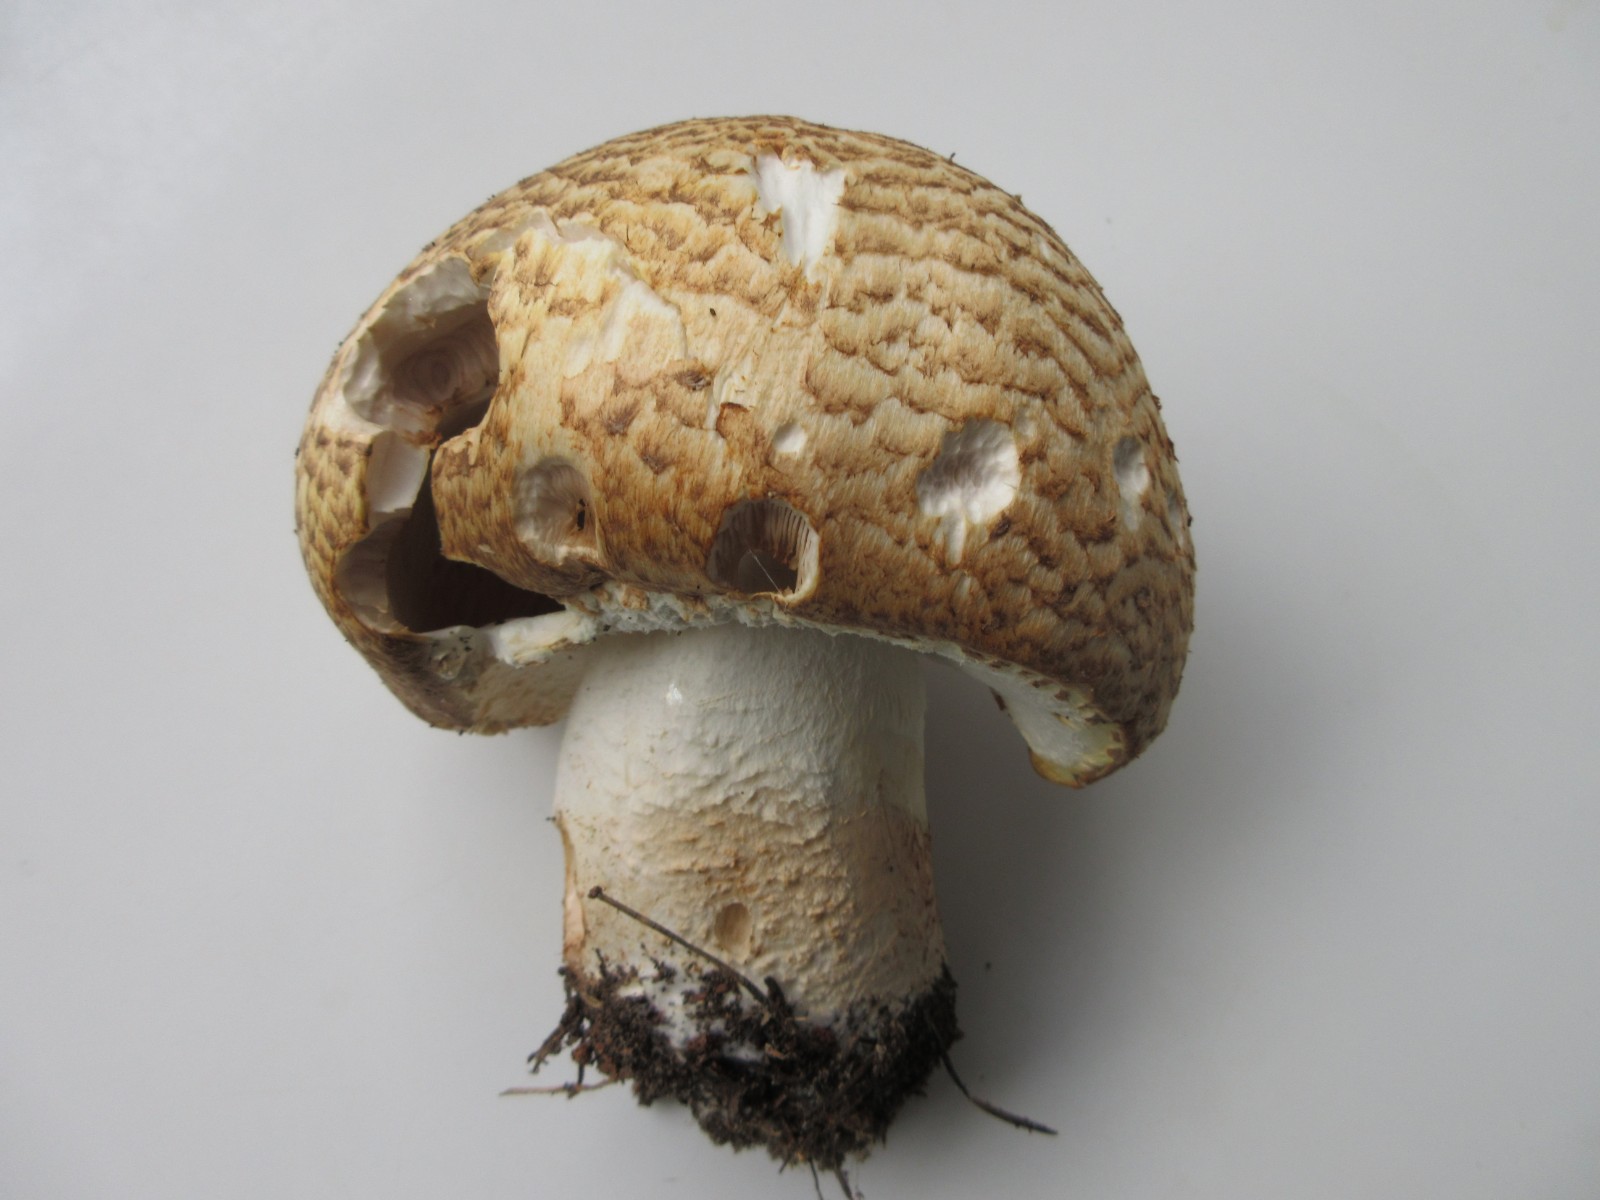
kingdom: Fungi
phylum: Basidiomycota
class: Agaricomycetes
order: Agaricales
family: Agaricaceae
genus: Agaricus
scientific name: Agaricus augustus
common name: prægtig champignon
